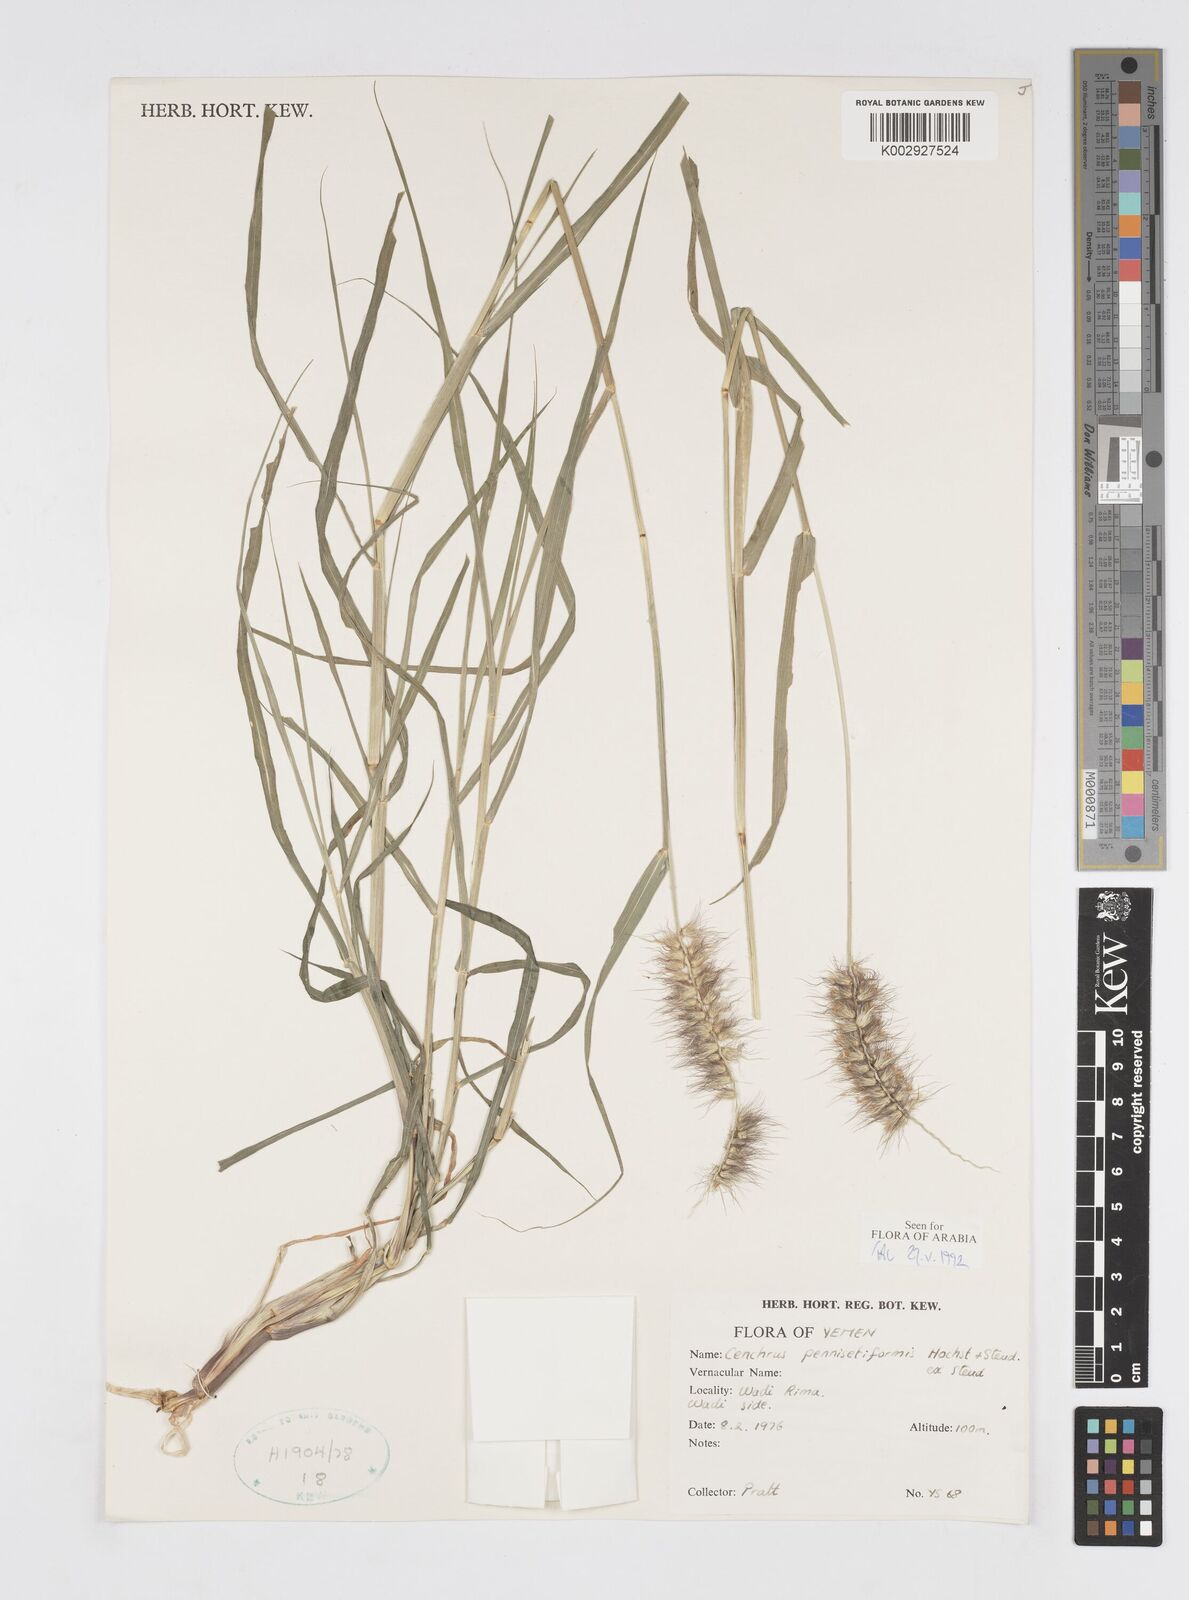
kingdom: Plantae
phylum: Tracheophyta
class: Liliopsida
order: Poales
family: Poaceae
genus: Cenchrus
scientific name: Cenchrus pennisetiformis
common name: Cloncurry
